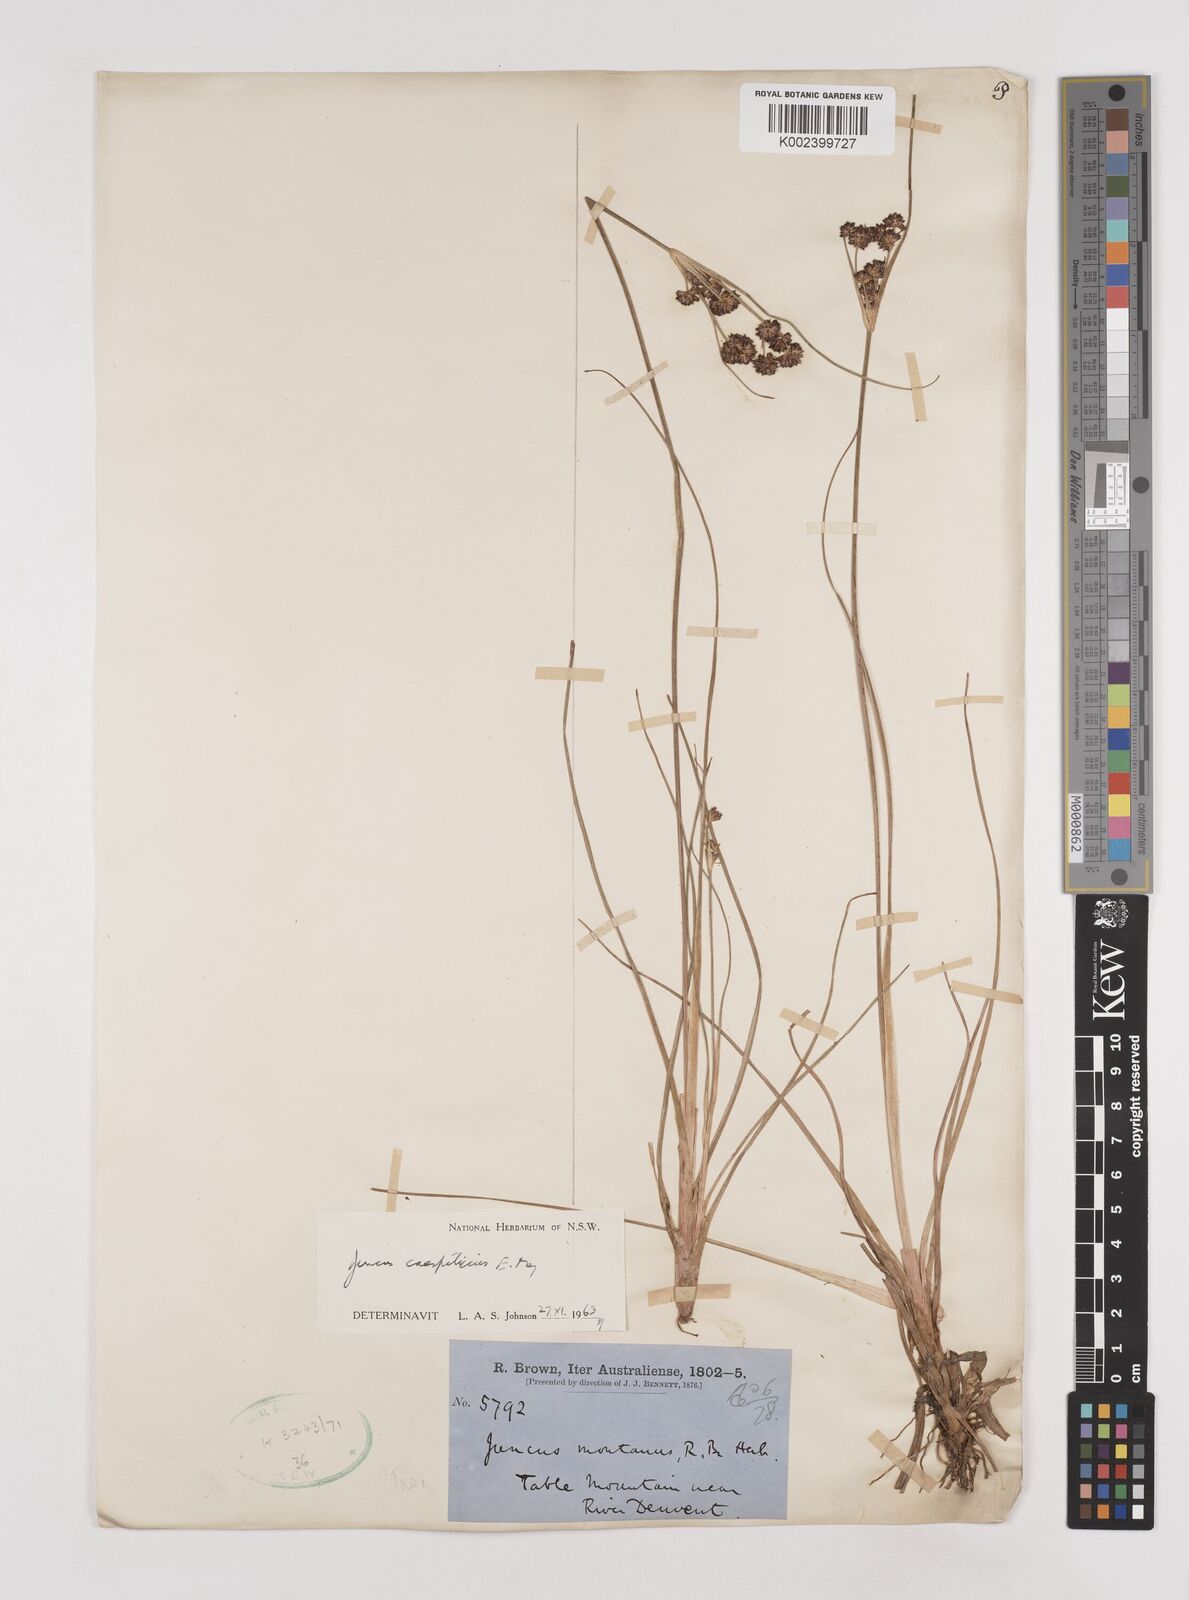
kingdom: Plantae
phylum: Tracheophyta
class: Liliopsida
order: Poales
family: Juncaceae
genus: Juncus
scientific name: Juncus caespiticius
